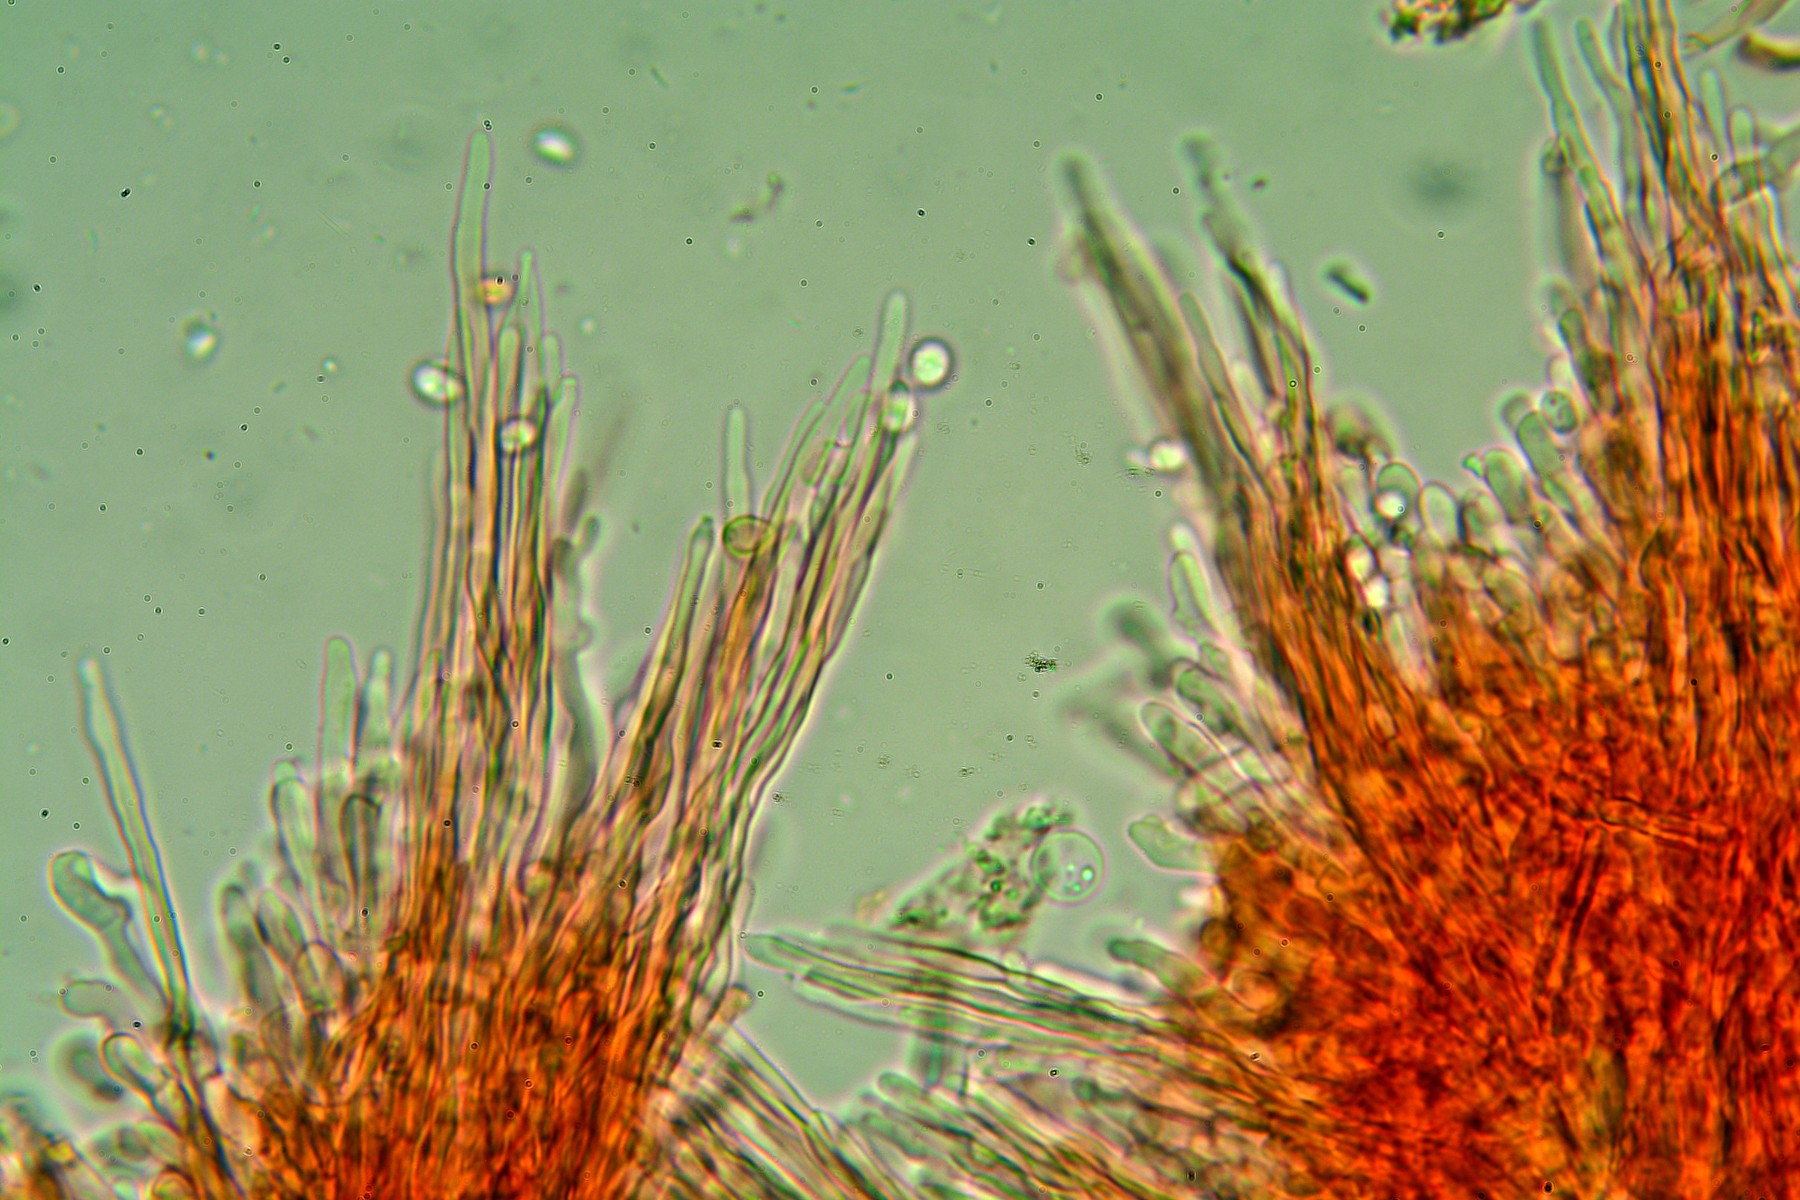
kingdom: Fungi
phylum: Basidiomycota
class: Agaricomycetes
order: Corticiales
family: Corticiaceae
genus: Lyomyces
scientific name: Lyomyces crustosus
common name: vortet hyldehinde
